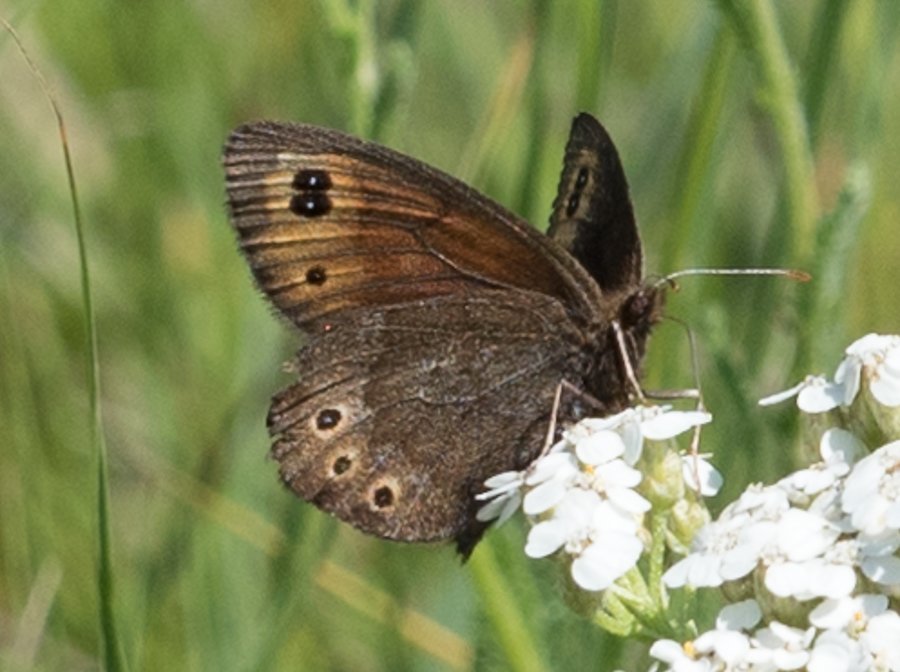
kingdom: Animalia
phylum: Arthropoda
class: Insecta
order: Lepidoptera
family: Nymphalidae
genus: Erebia
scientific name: Erebia epipsodea
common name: Common Alpine
